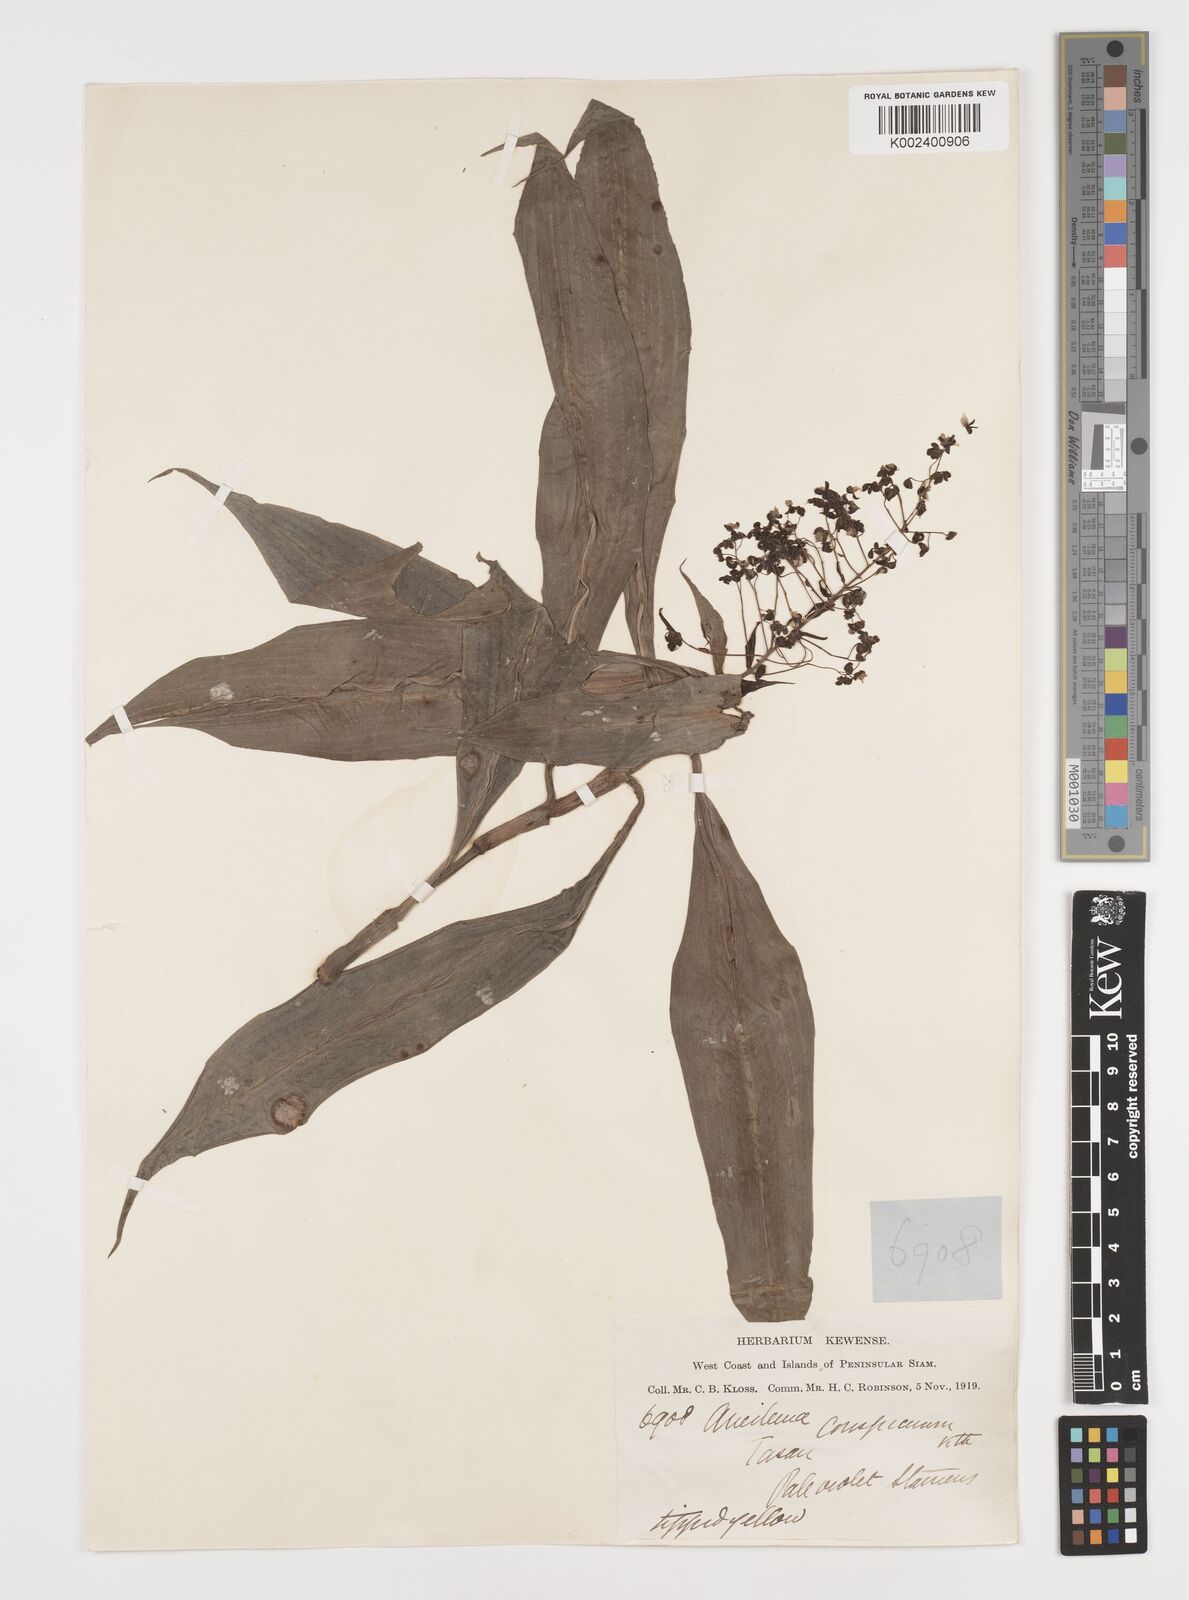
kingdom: Plantae
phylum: Tracheophyta
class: Liliopsida
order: Commelinales
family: Commelinaceae
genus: Dictyospermum
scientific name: Dictyospermum conspicuum
